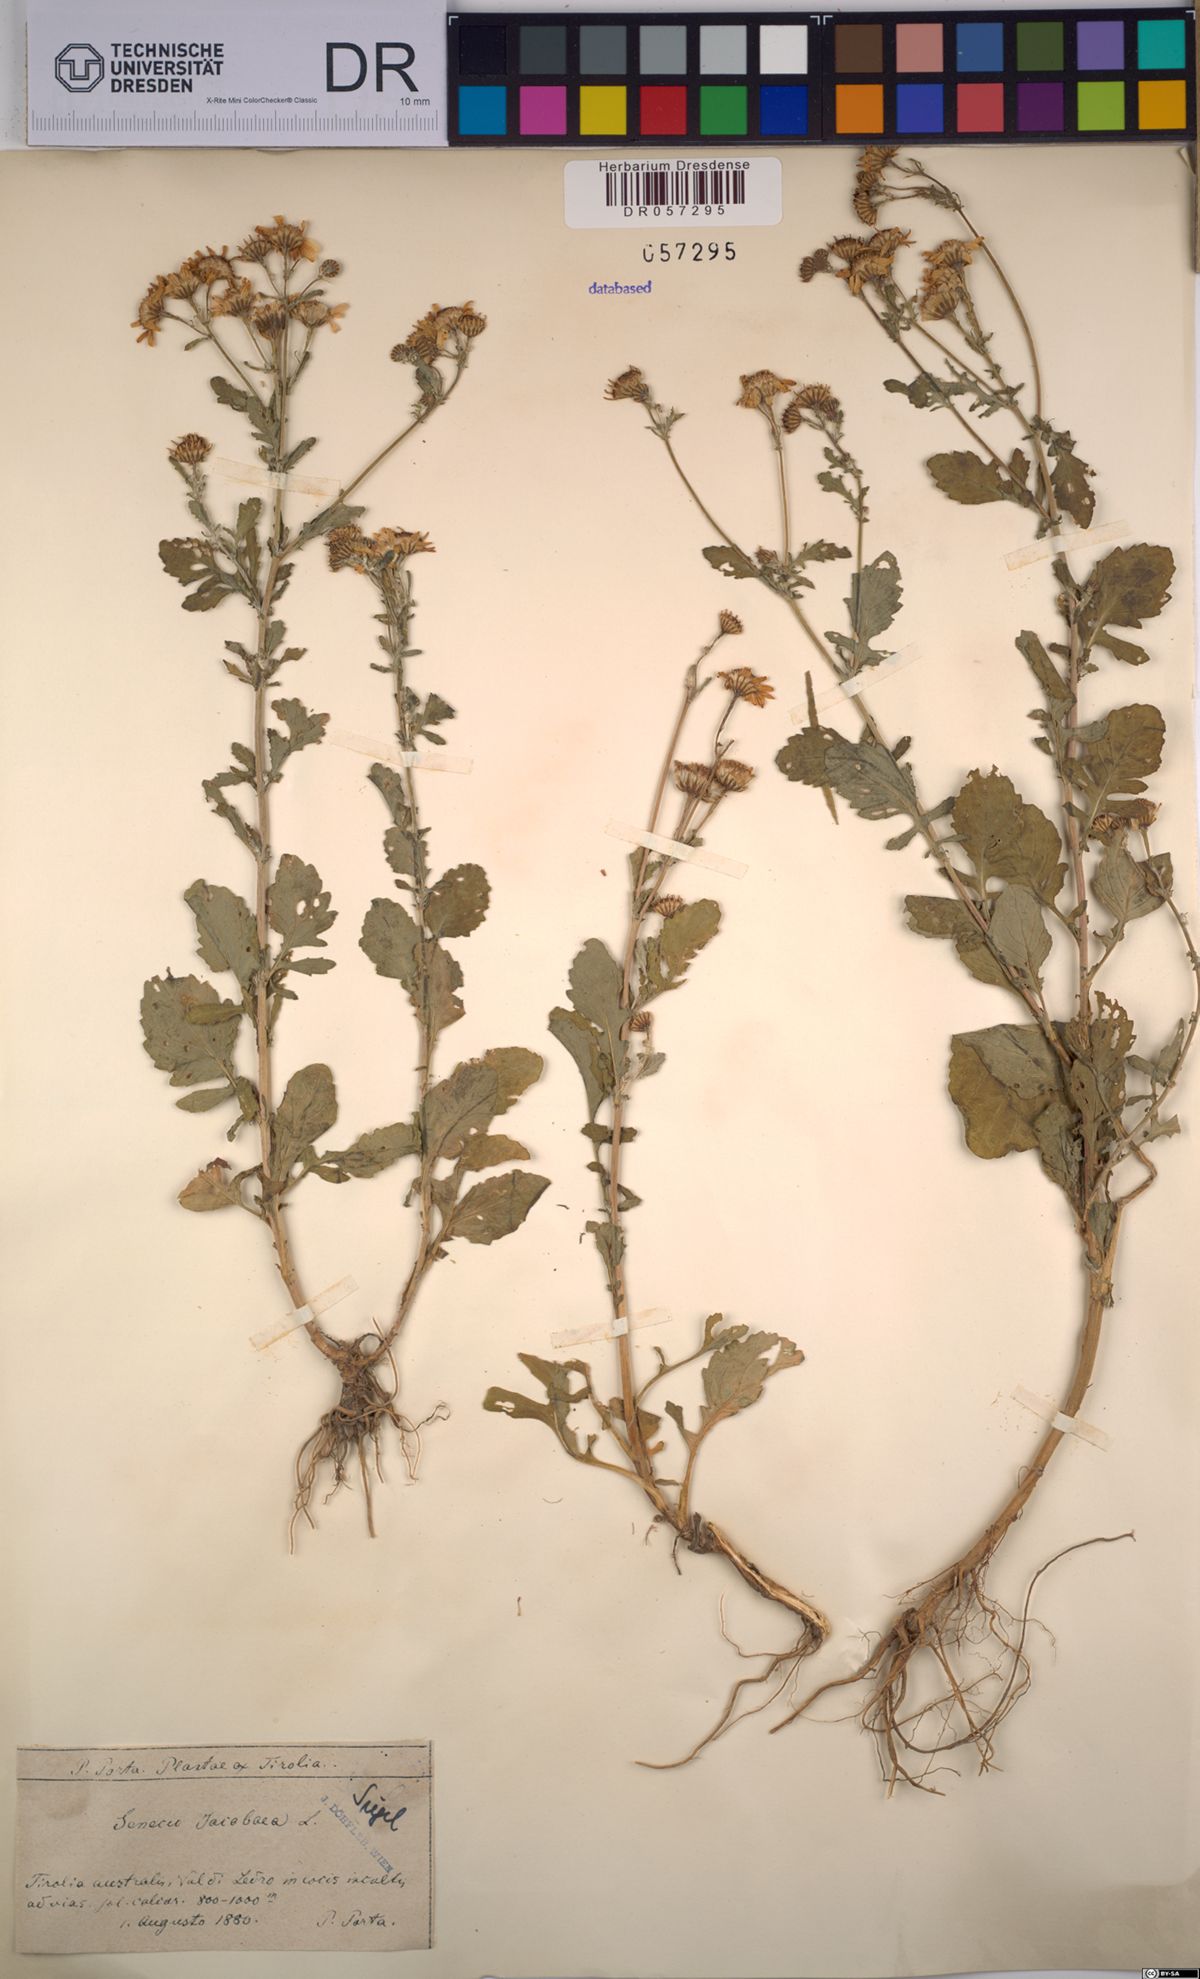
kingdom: Plantae
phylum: Tracheophyta
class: Magnoliopsida
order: Asterales
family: Asteraceae
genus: Jacobaea
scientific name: Jacobaea vulgaris
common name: Stinking willie
